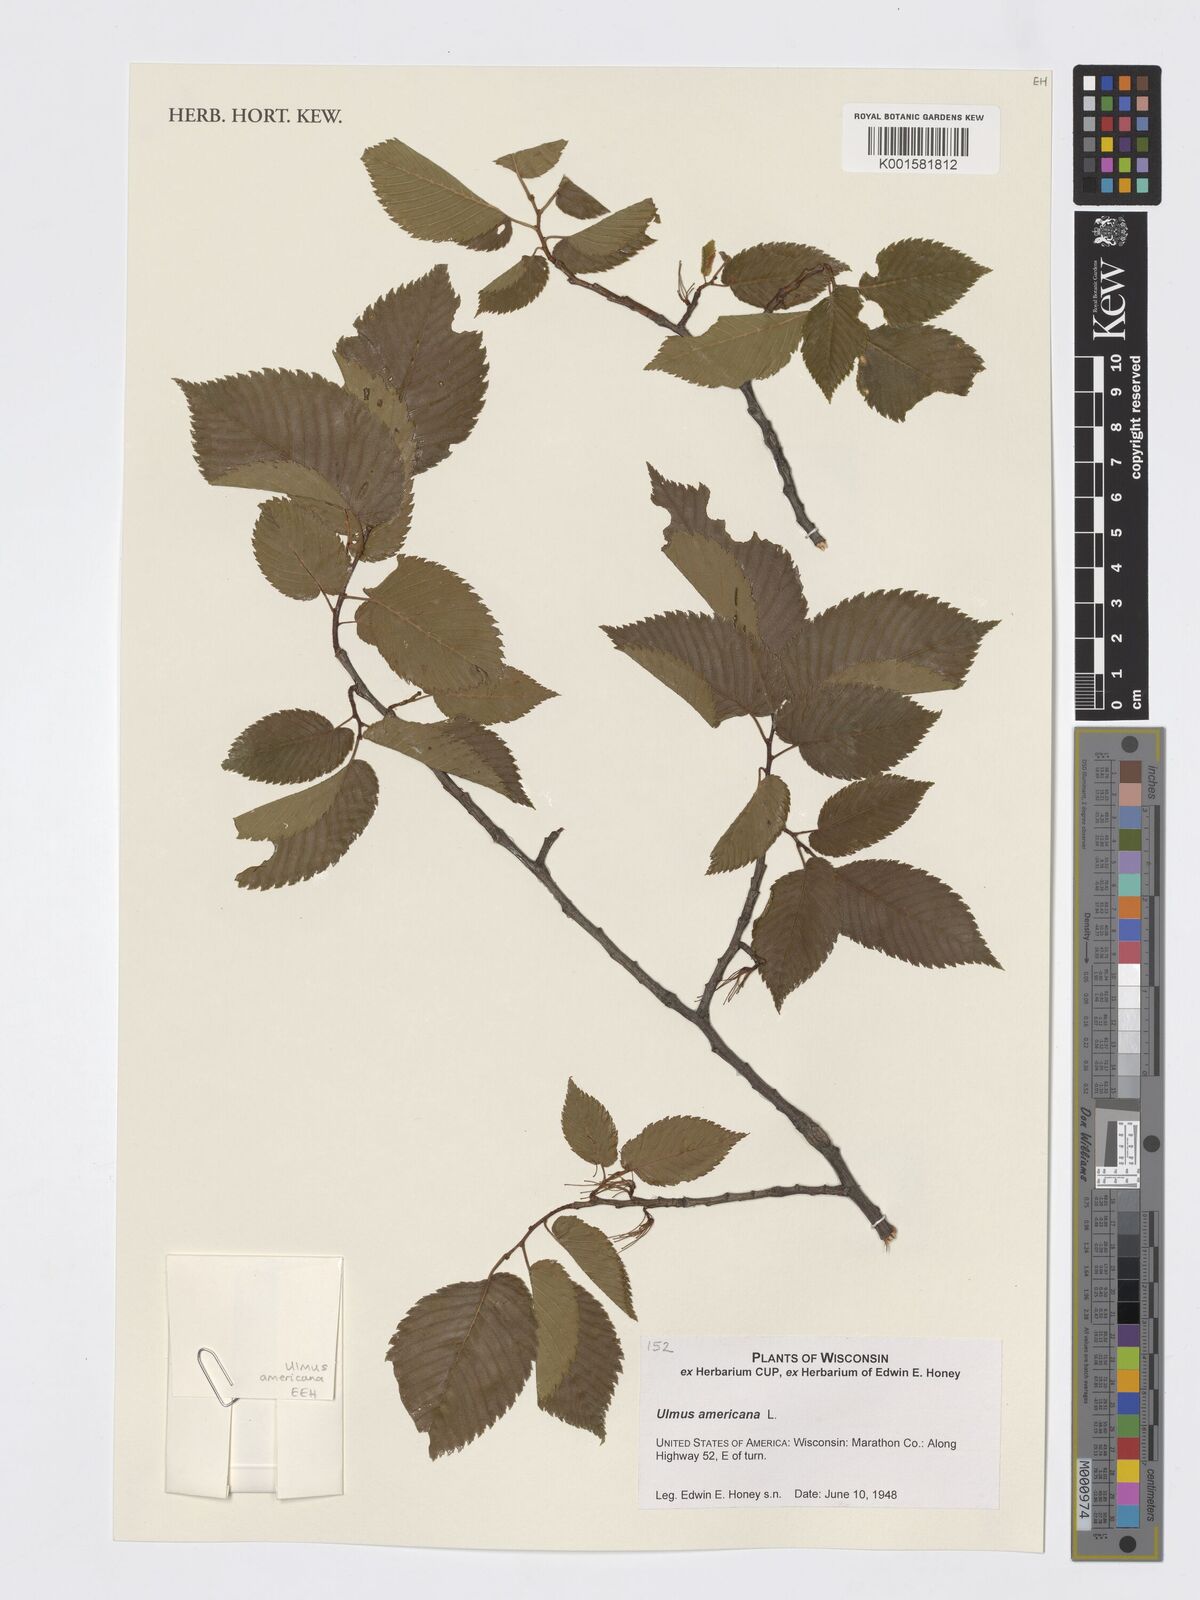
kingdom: Plantae
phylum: Tracheophyta
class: Magnoliopsida
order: Rosales
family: Ulmaceae
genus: Ulmus
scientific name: Ulmus americana
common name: American elm
